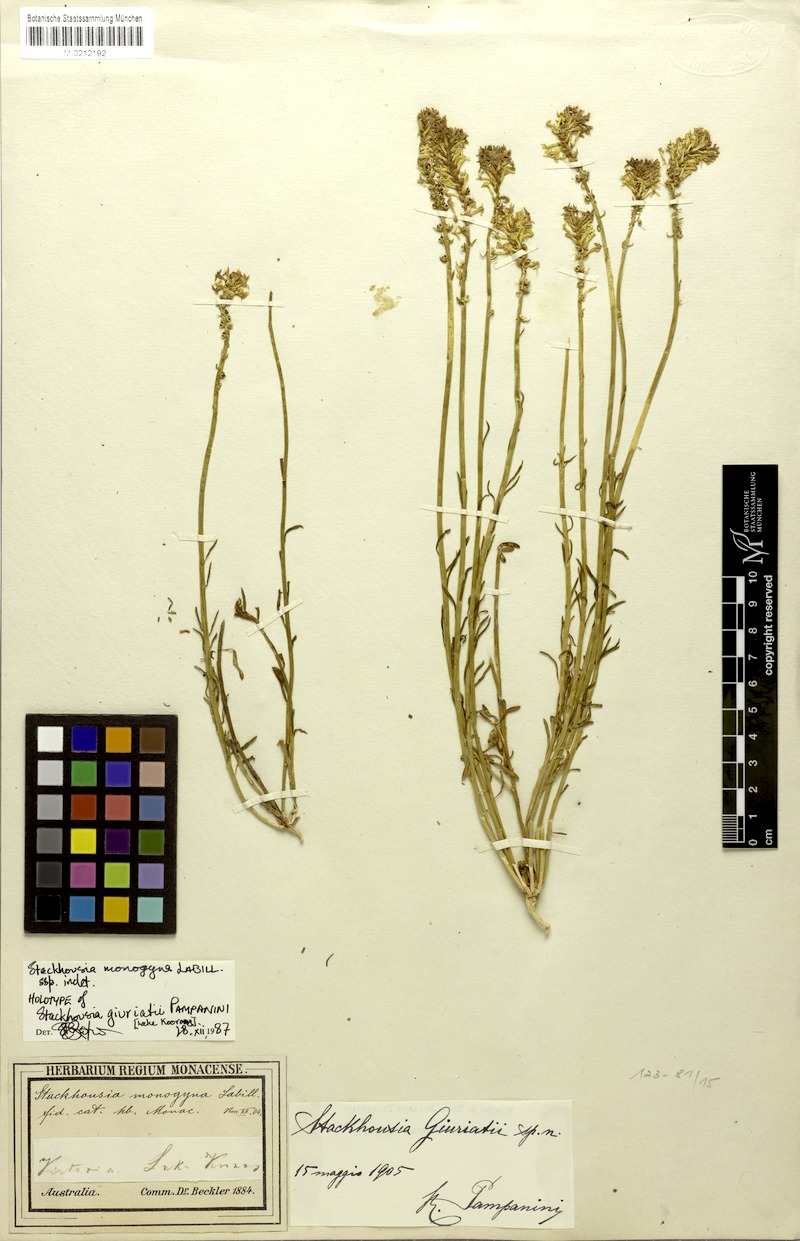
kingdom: Plantae
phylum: Tracheophyta
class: Magnoliopsida
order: Celastrales
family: Celastraceae
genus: Stackhousia
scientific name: Stackhousia monogyna
